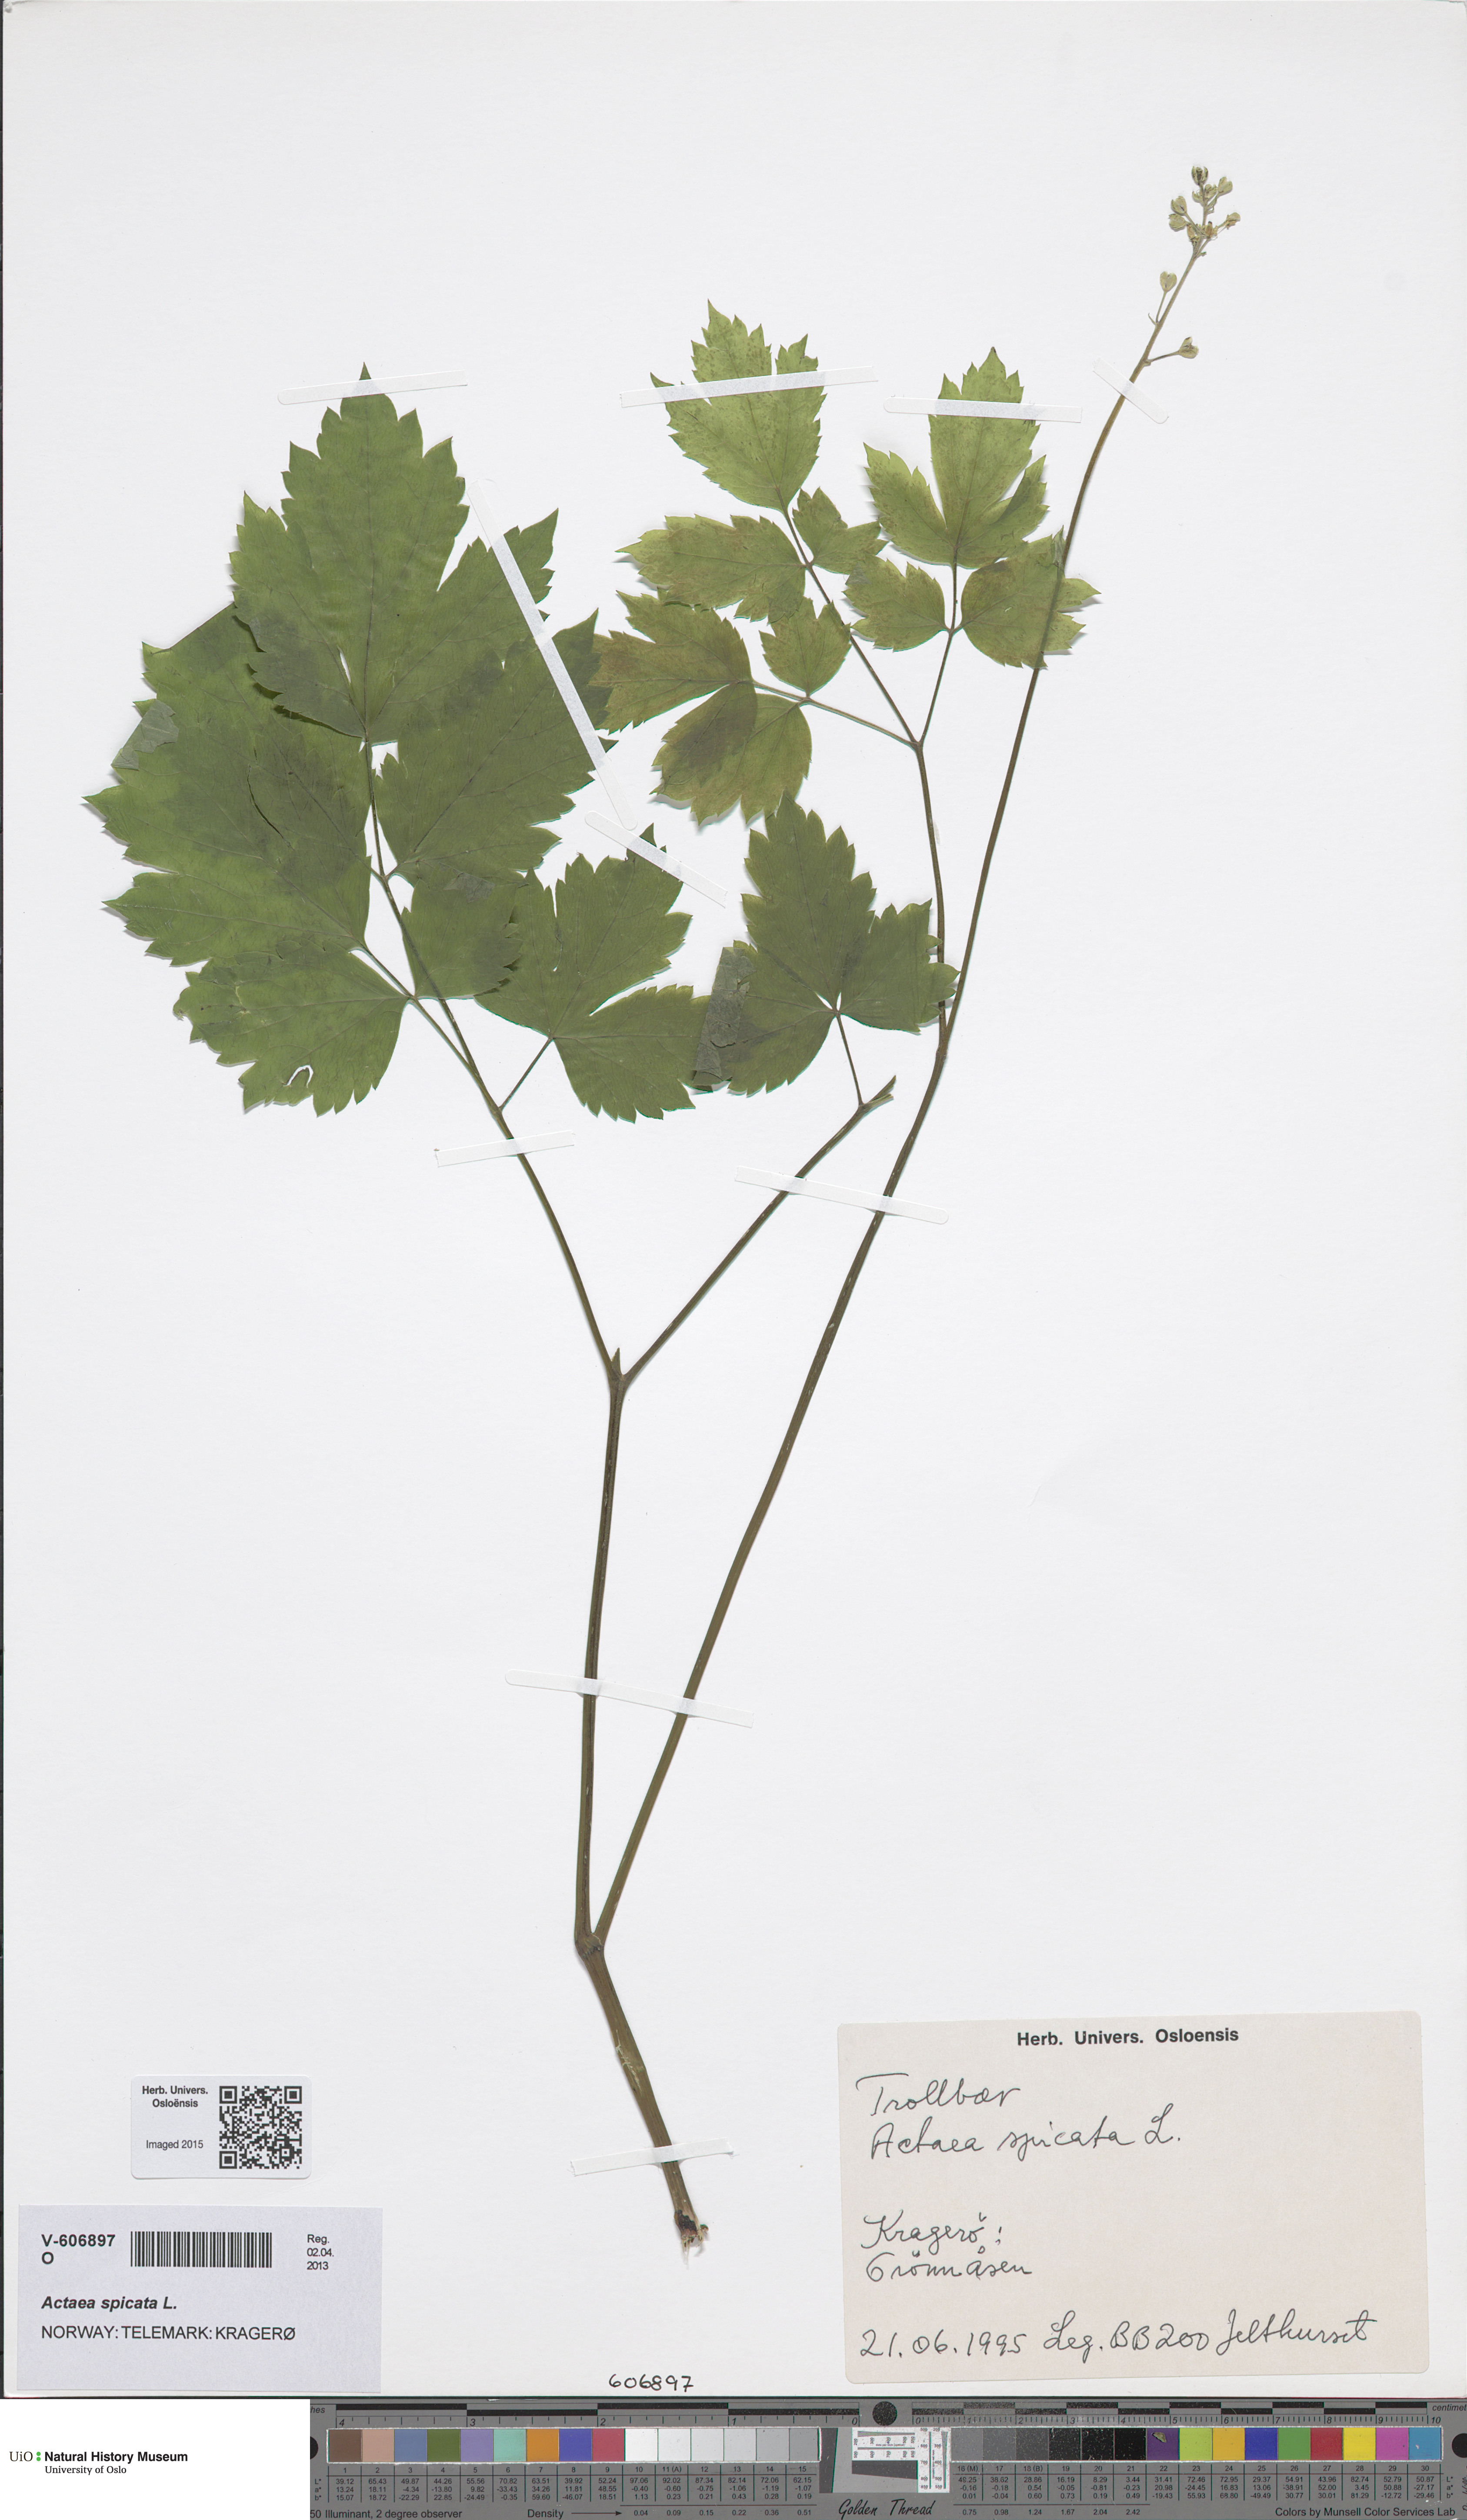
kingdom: Plantae
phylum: Tracheophyta
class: Magnoliopsida
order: Ranunculales
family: Ranunculaceae
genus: Actaea
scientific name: Actaea spicata
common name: Baneberry
